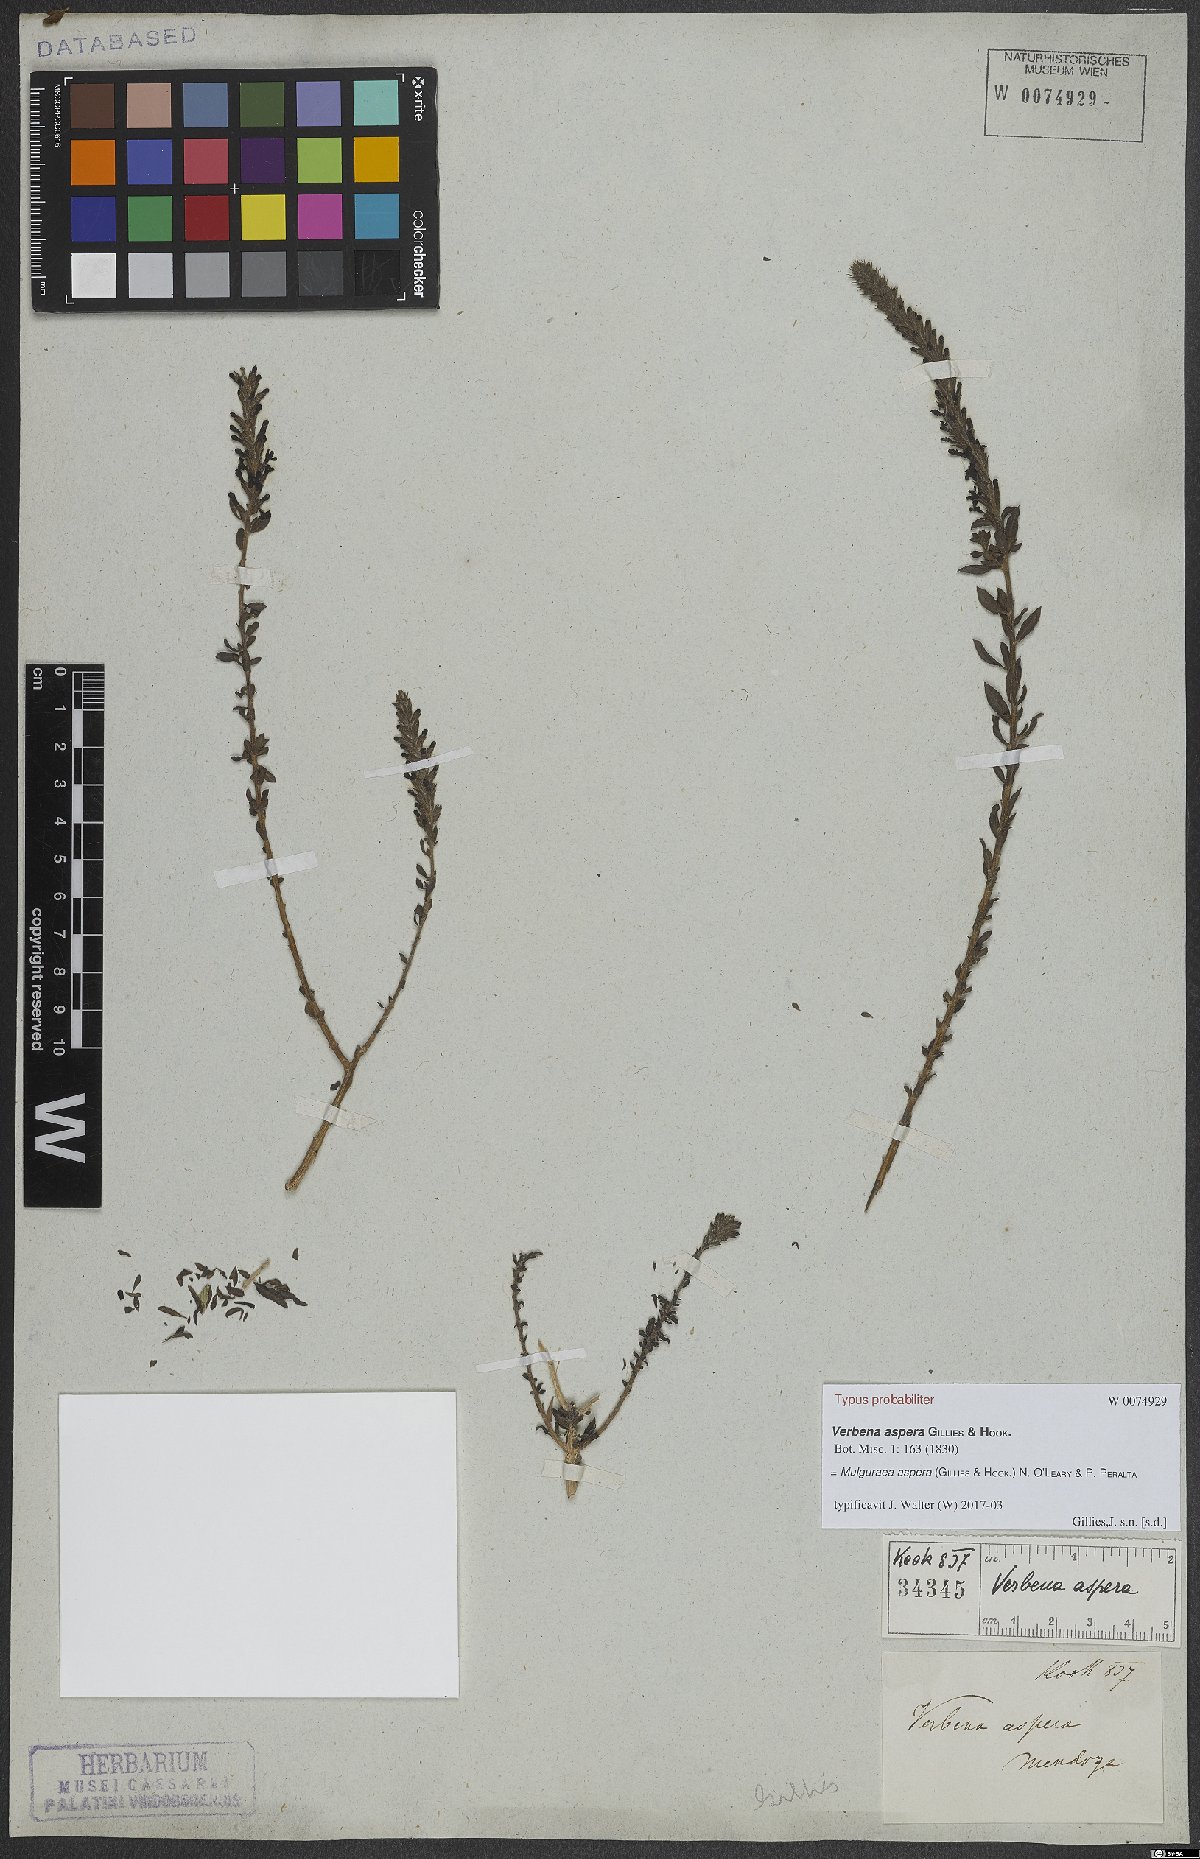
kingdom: Plantae
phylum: Tracheophyta
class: Magnoliopsida
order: Lamiales
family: Verbenaceae
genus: Mulguraea
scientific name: Mulguraea aspera
